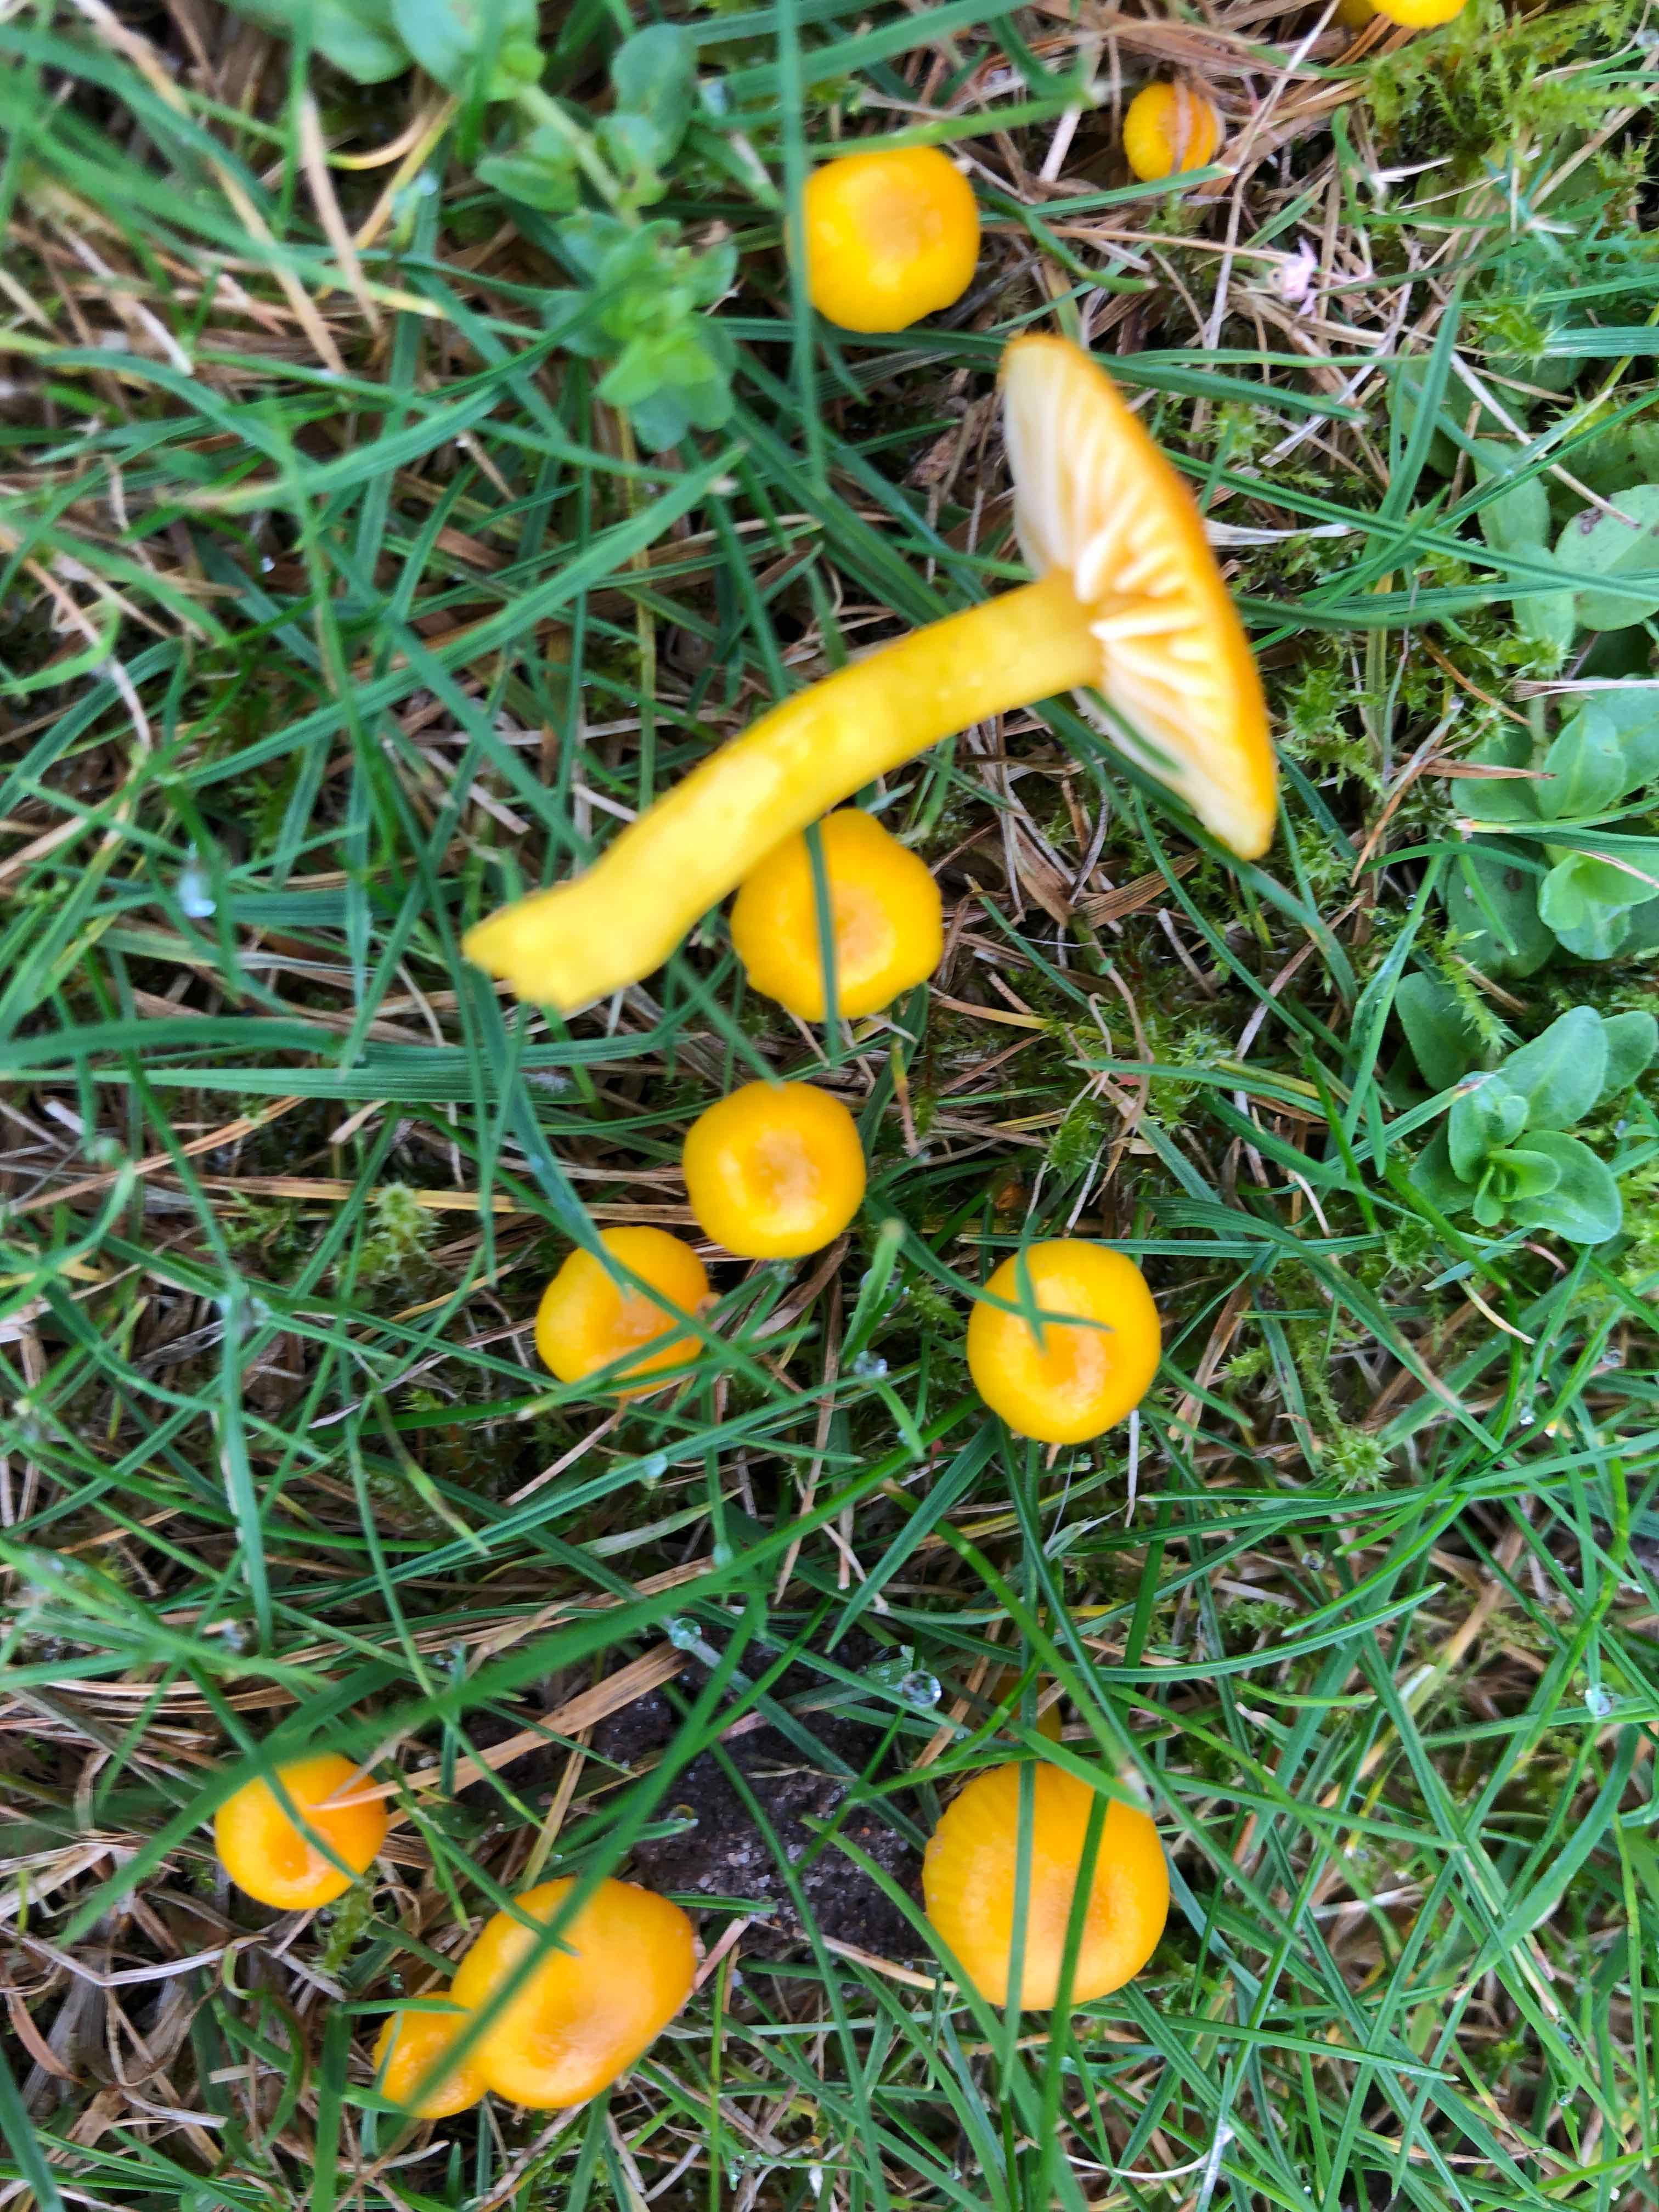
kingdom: Fungi
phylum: Basidiomycota
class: Agaricomycetes
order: Agaricales
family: Hygrophoraceae
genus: Hygrocybe
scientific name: Hygrocybe ceracea
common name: voksgul vokshat
